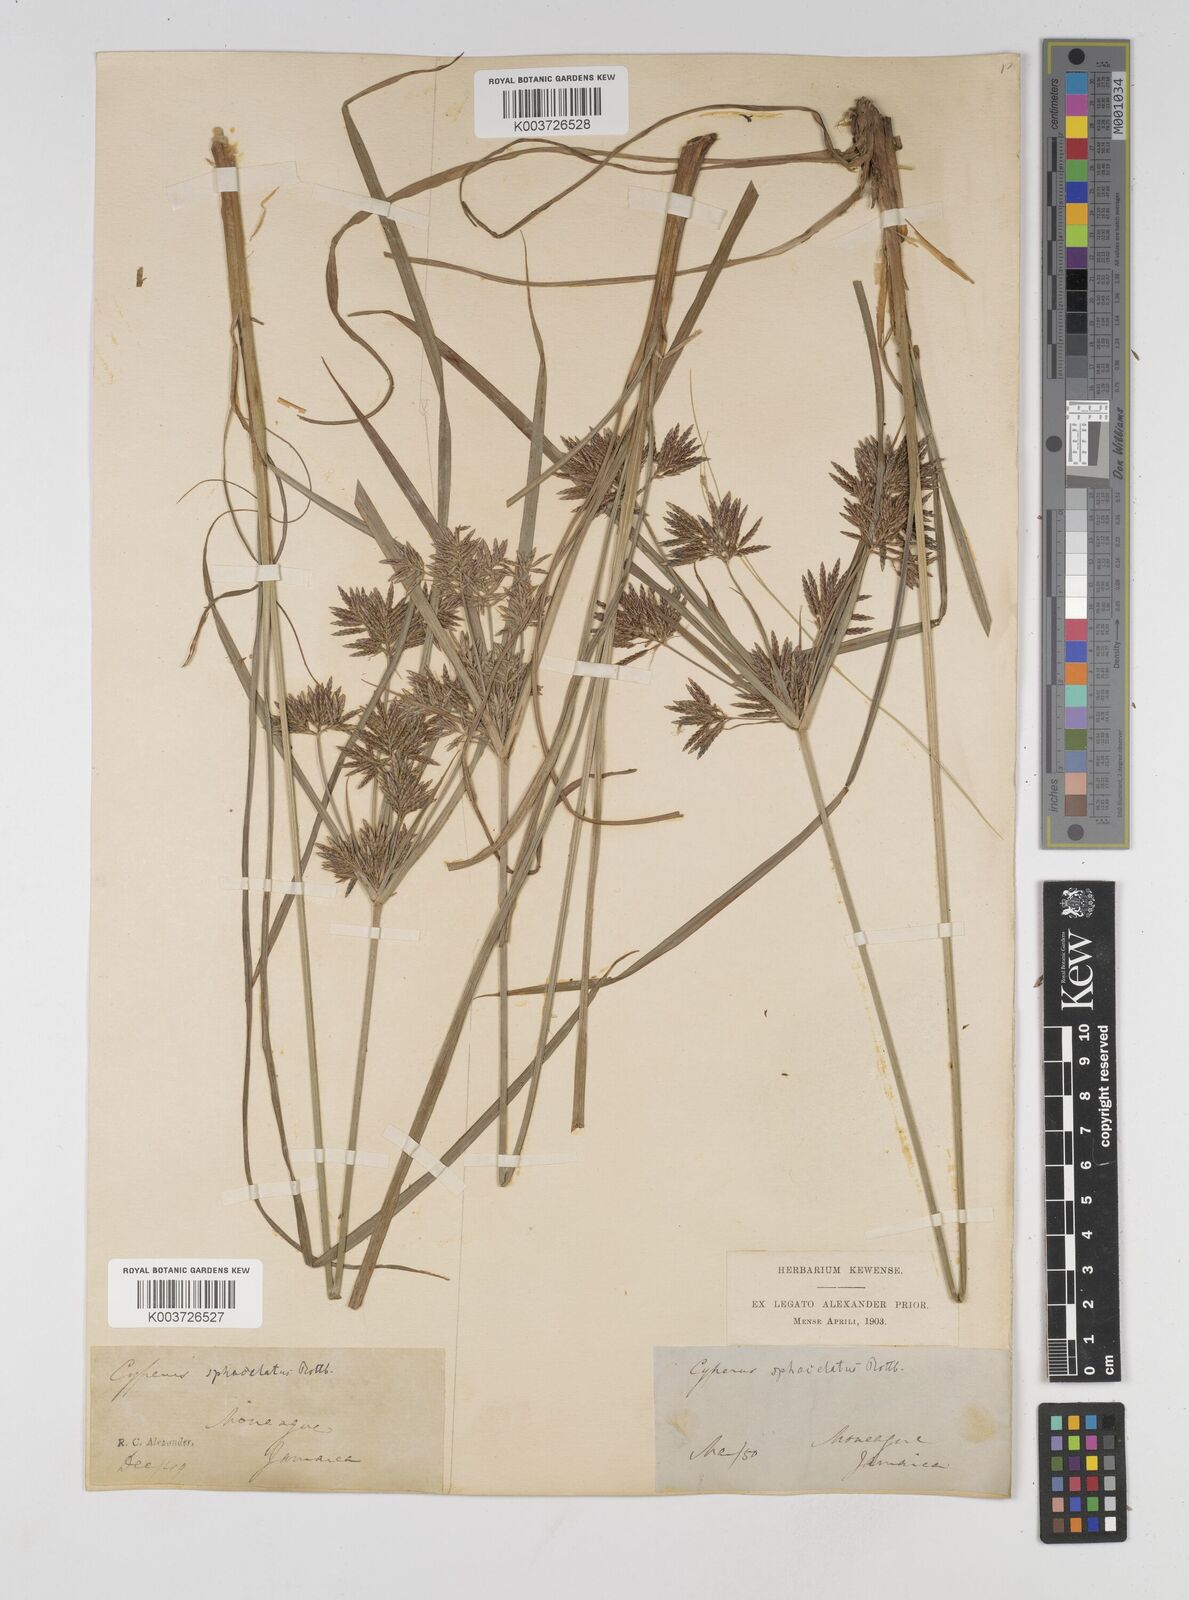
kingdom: Plantae
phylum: Tracheophyta
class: Liliopsida
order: Poales
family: Cyperaceae
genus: Cyperus
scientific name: Cyperus sphacelatus
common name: Roadside flatsedge
